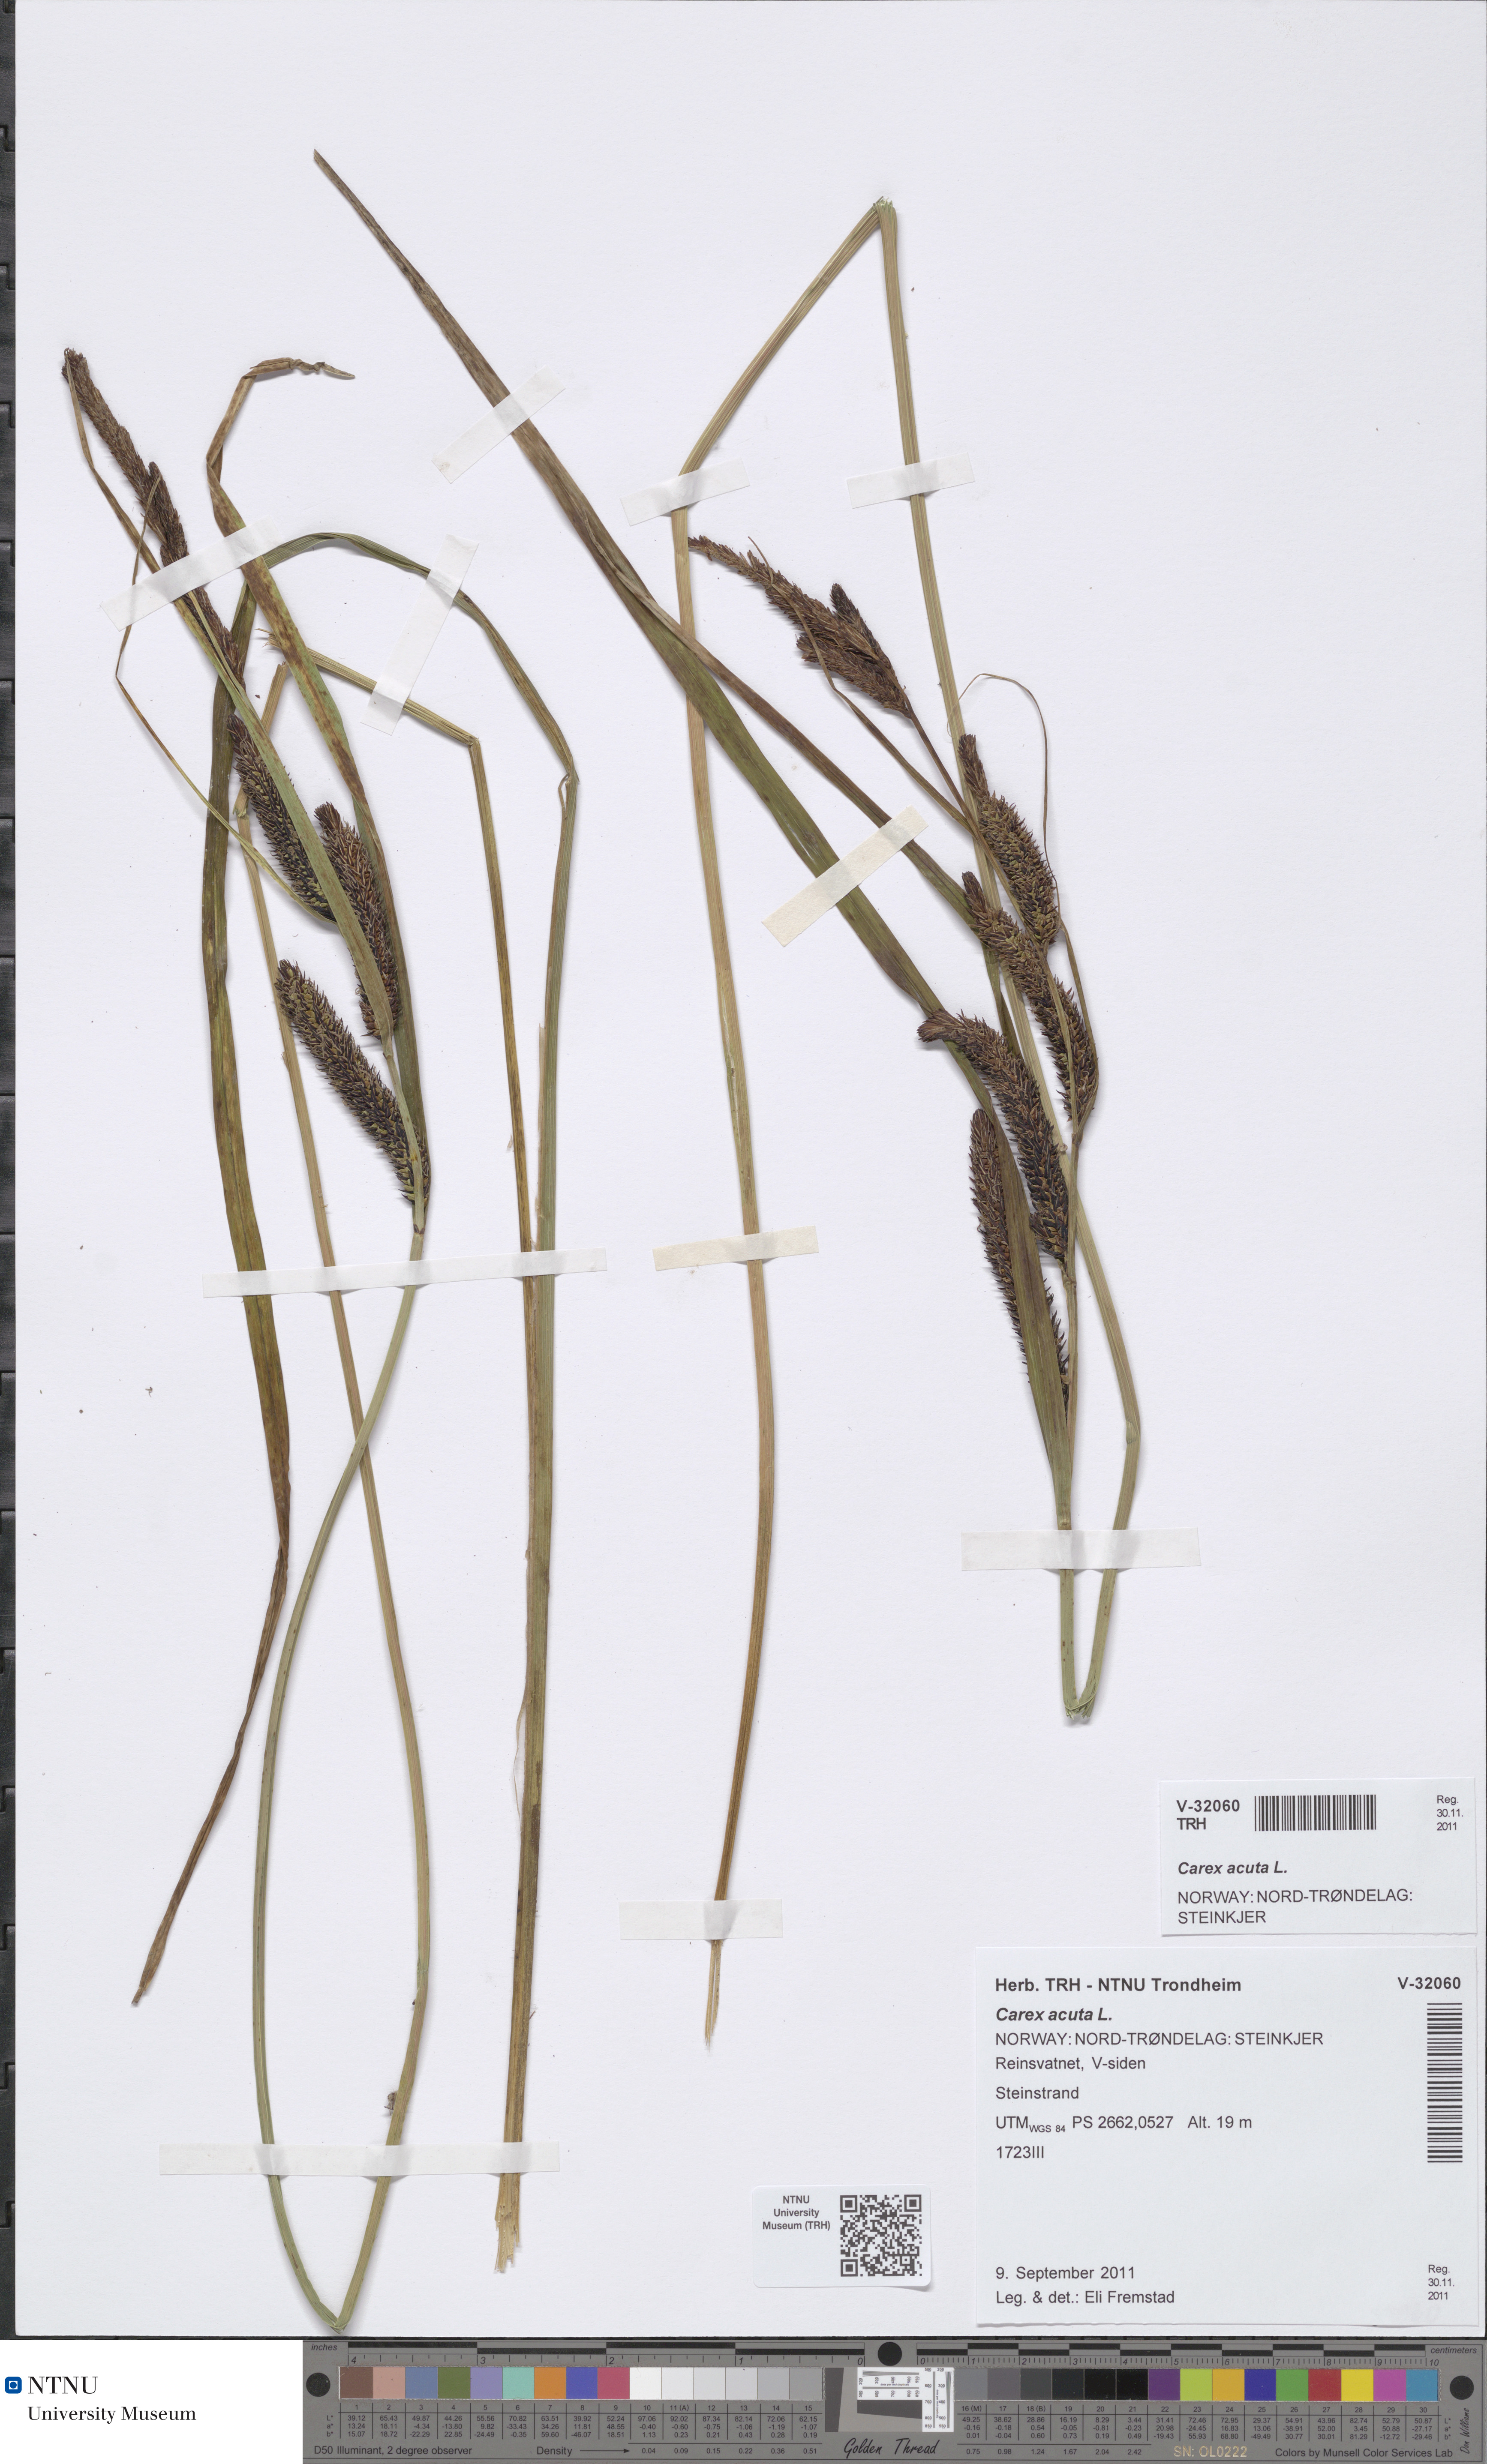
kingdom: Plantae
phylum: Tracheophyta
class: Liliopsida
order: Poales
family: Cyperaceae
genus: Carex
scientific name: Carex acuta
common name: Slender tufted-sedge
